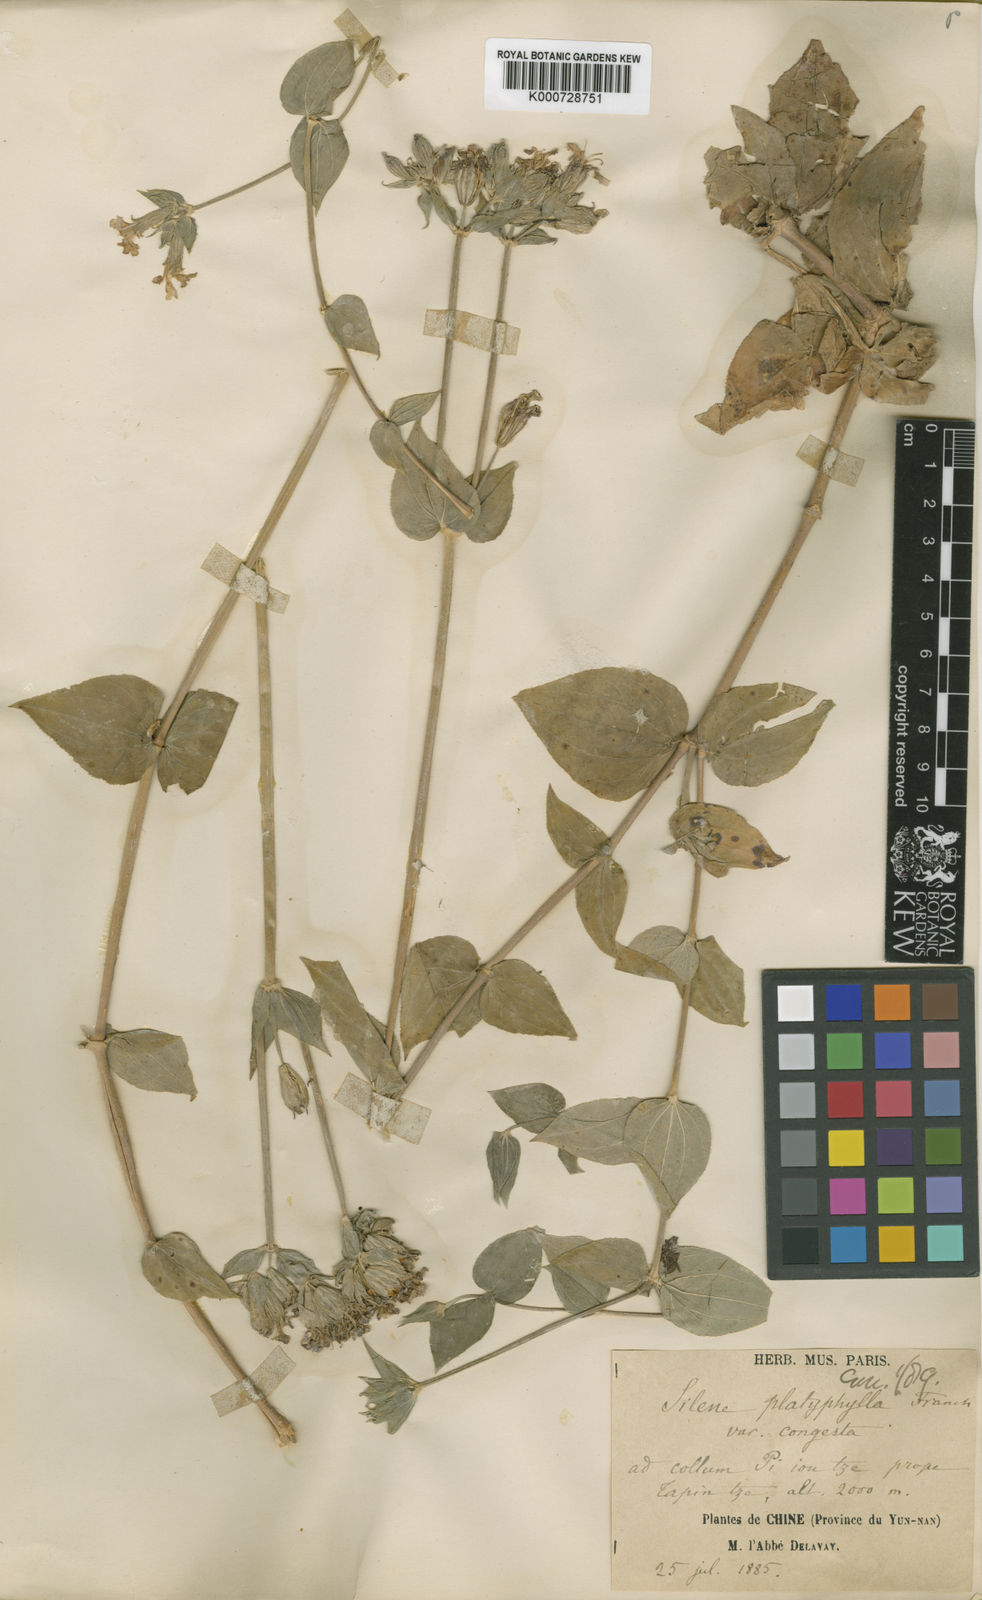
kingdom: Plantae
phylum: Tracheophyta
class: Magnoliopsida
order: Caryophyllales
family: Caryophyllaceae
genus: Silene
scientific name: Silene platyphylla
